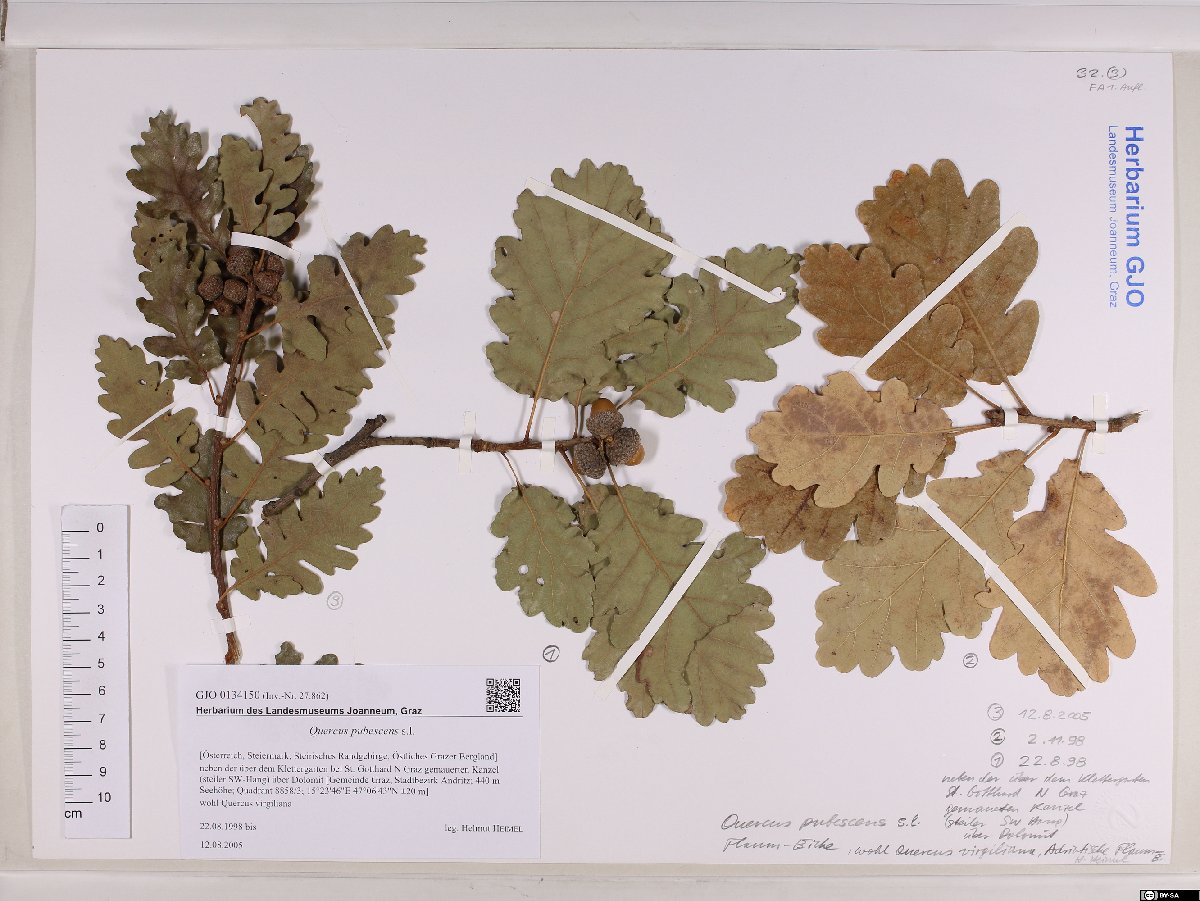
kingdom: Plantae
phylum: Tracheophyta
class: Magnoliopsida
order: Fagales
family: Fagaceae
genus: Quercus
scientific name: Quercus pubescens
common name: Downy oak
